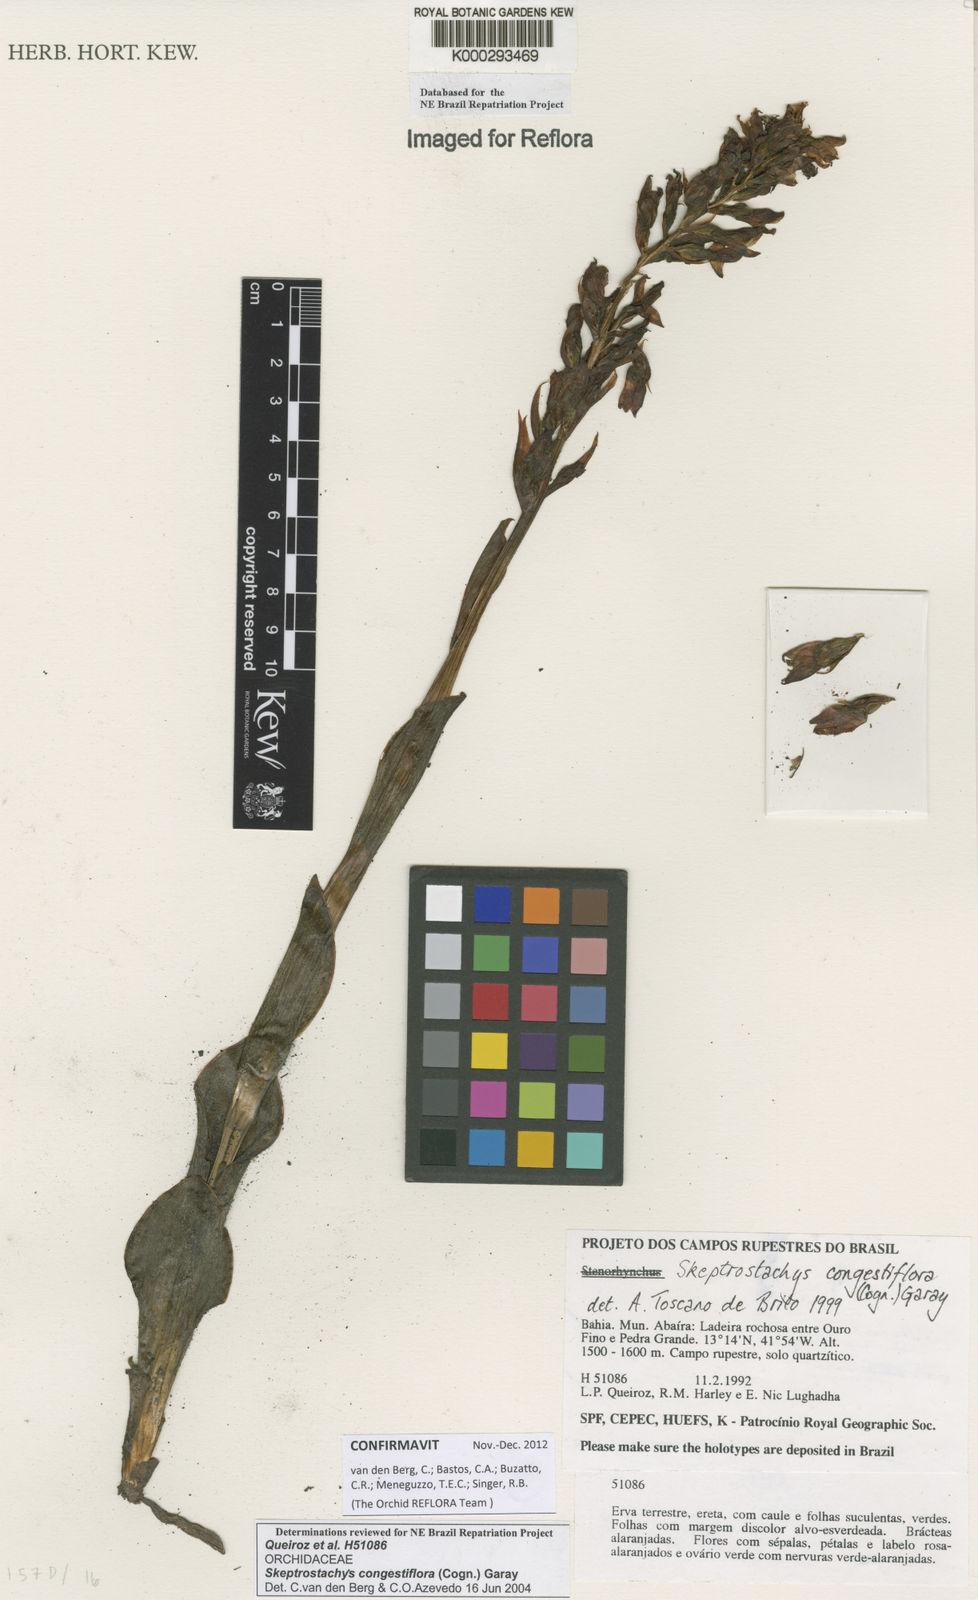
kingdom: Plantae
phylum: Tracheophyta
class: Liliopsida
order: Asparagales
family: Orchidaceae
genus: Skeptrostachys
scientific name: Skeptrostachys congestiflora
